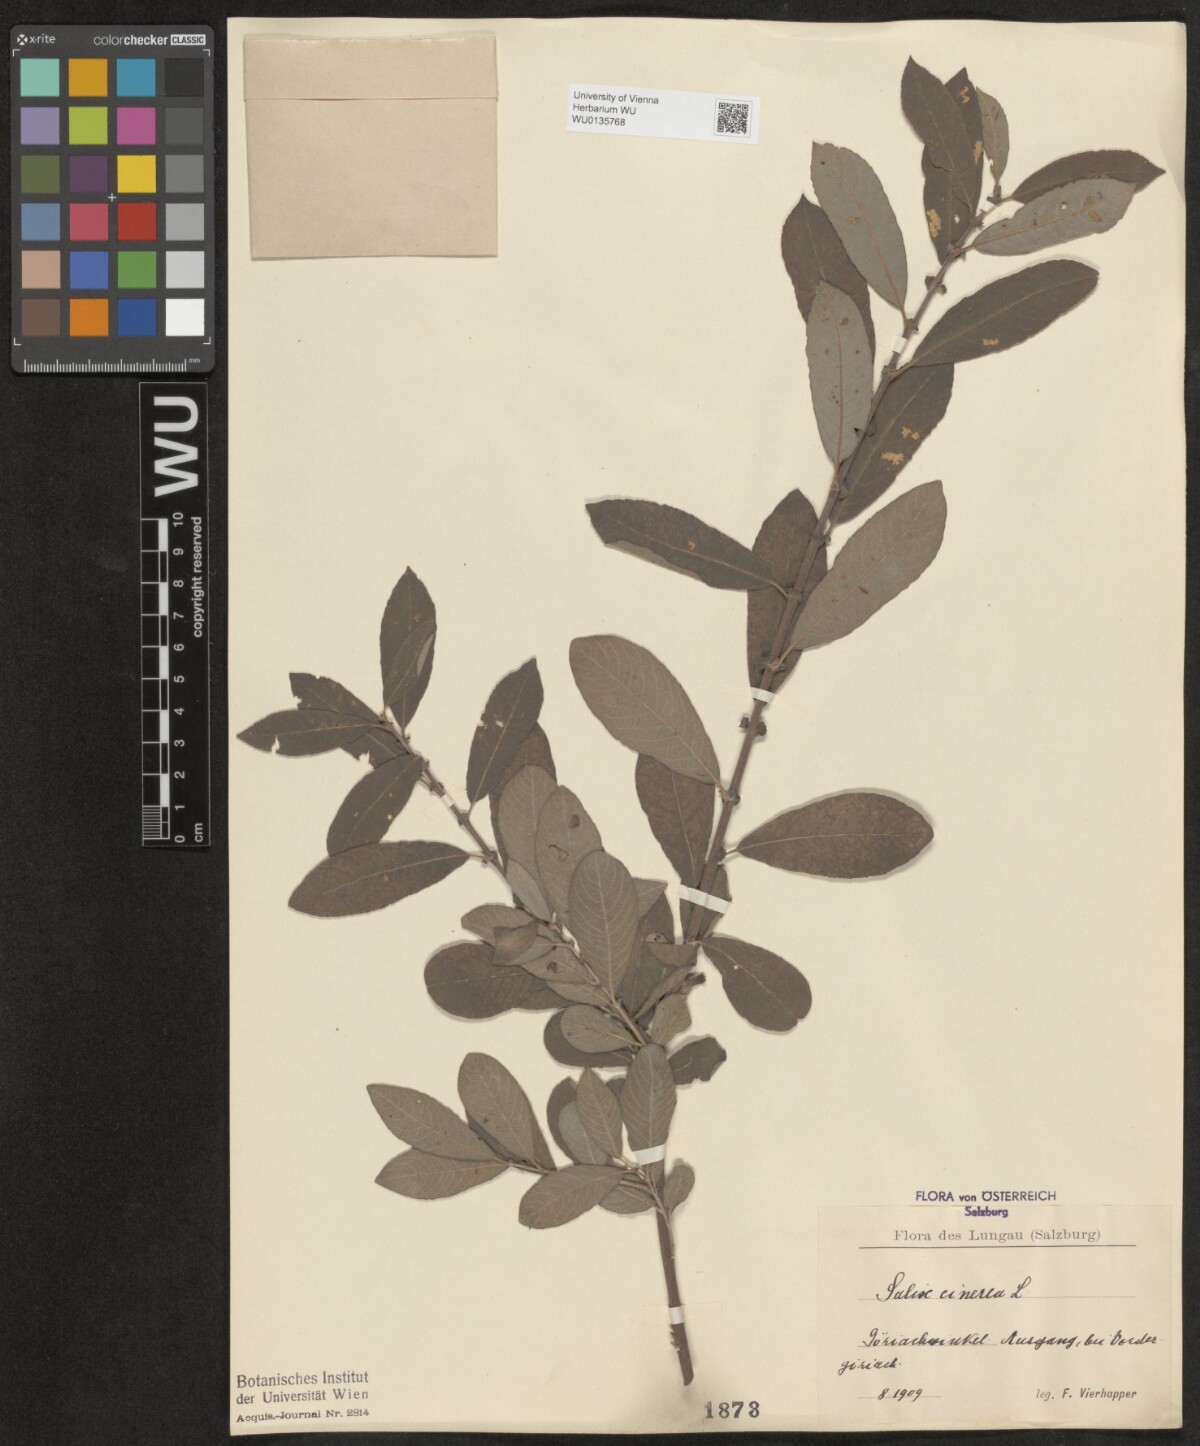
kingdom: Plantae
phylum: Tracheophyta
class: Magnoliopsida
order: Malpighiales
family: Salicaceae
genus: Salix
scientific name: Salix cinerea
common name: Common sallow
